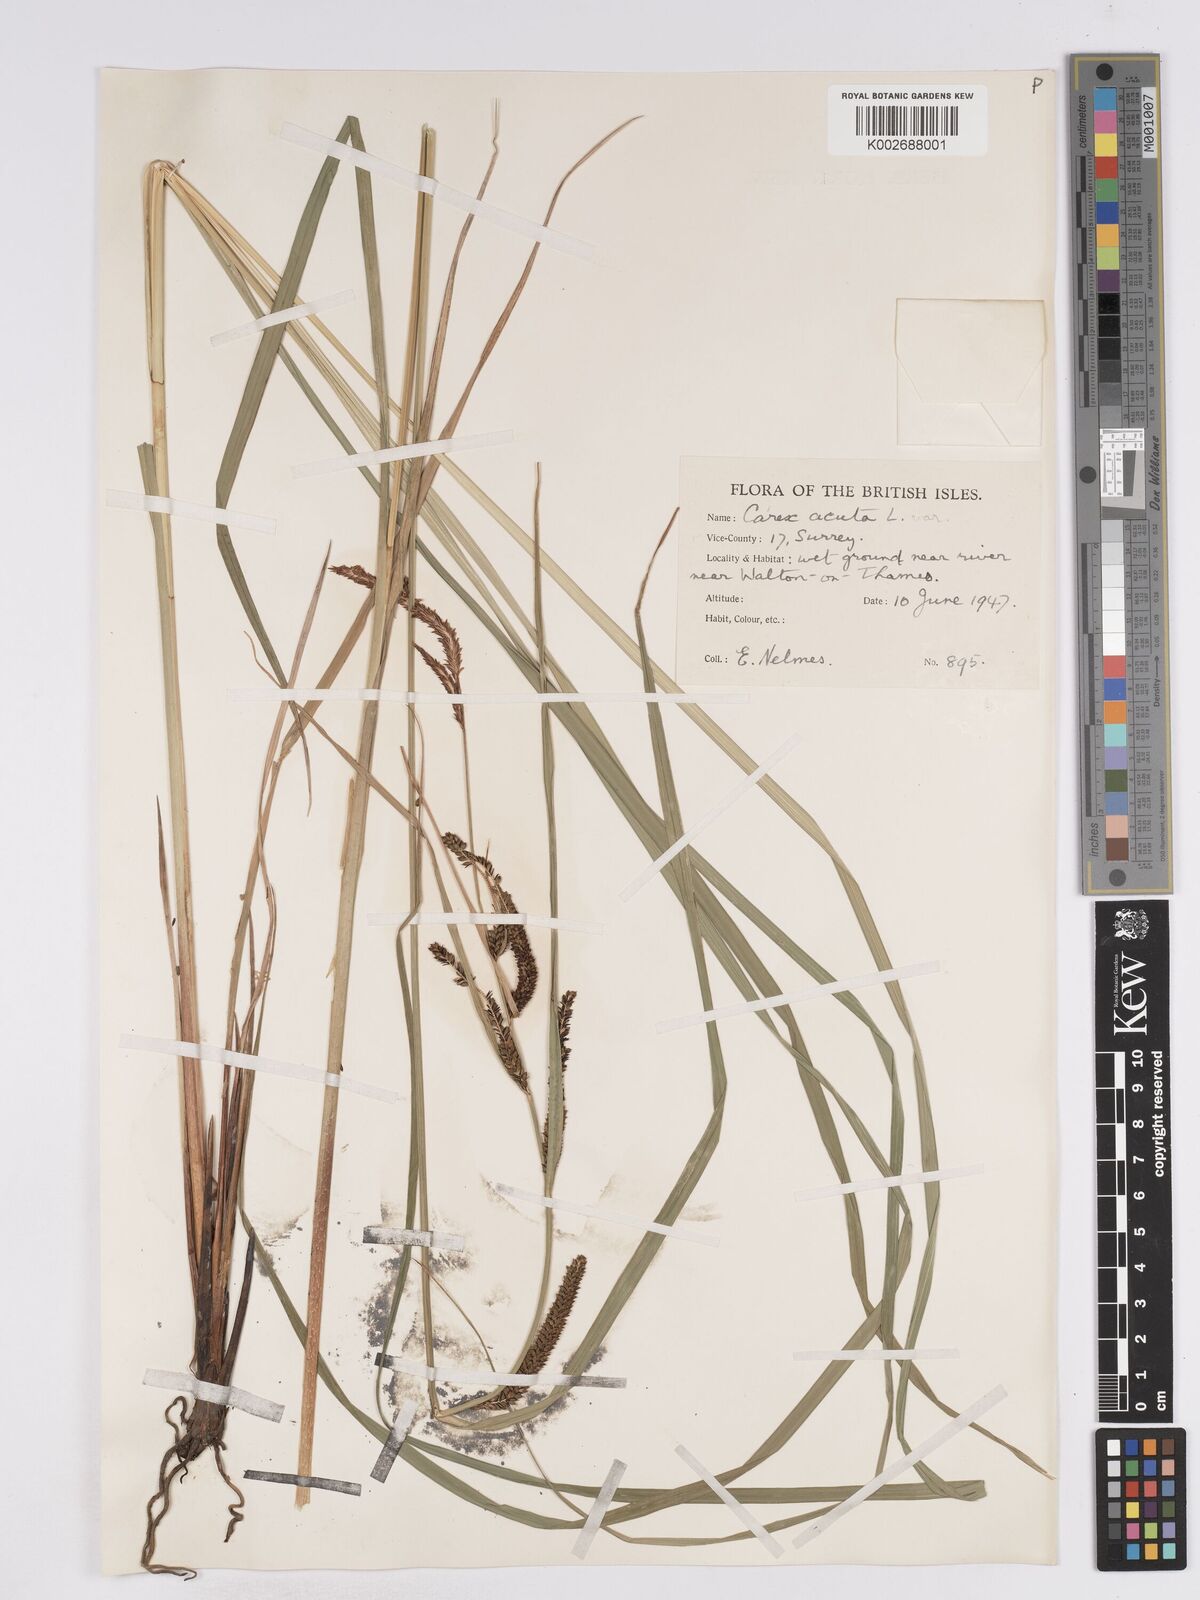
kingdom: Plantae
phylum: Tracheophyta
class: Liliopsida
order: Poales
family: Cyperaceae
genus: Carex
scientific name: Carex acuta
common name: Slender tufted-sedge
